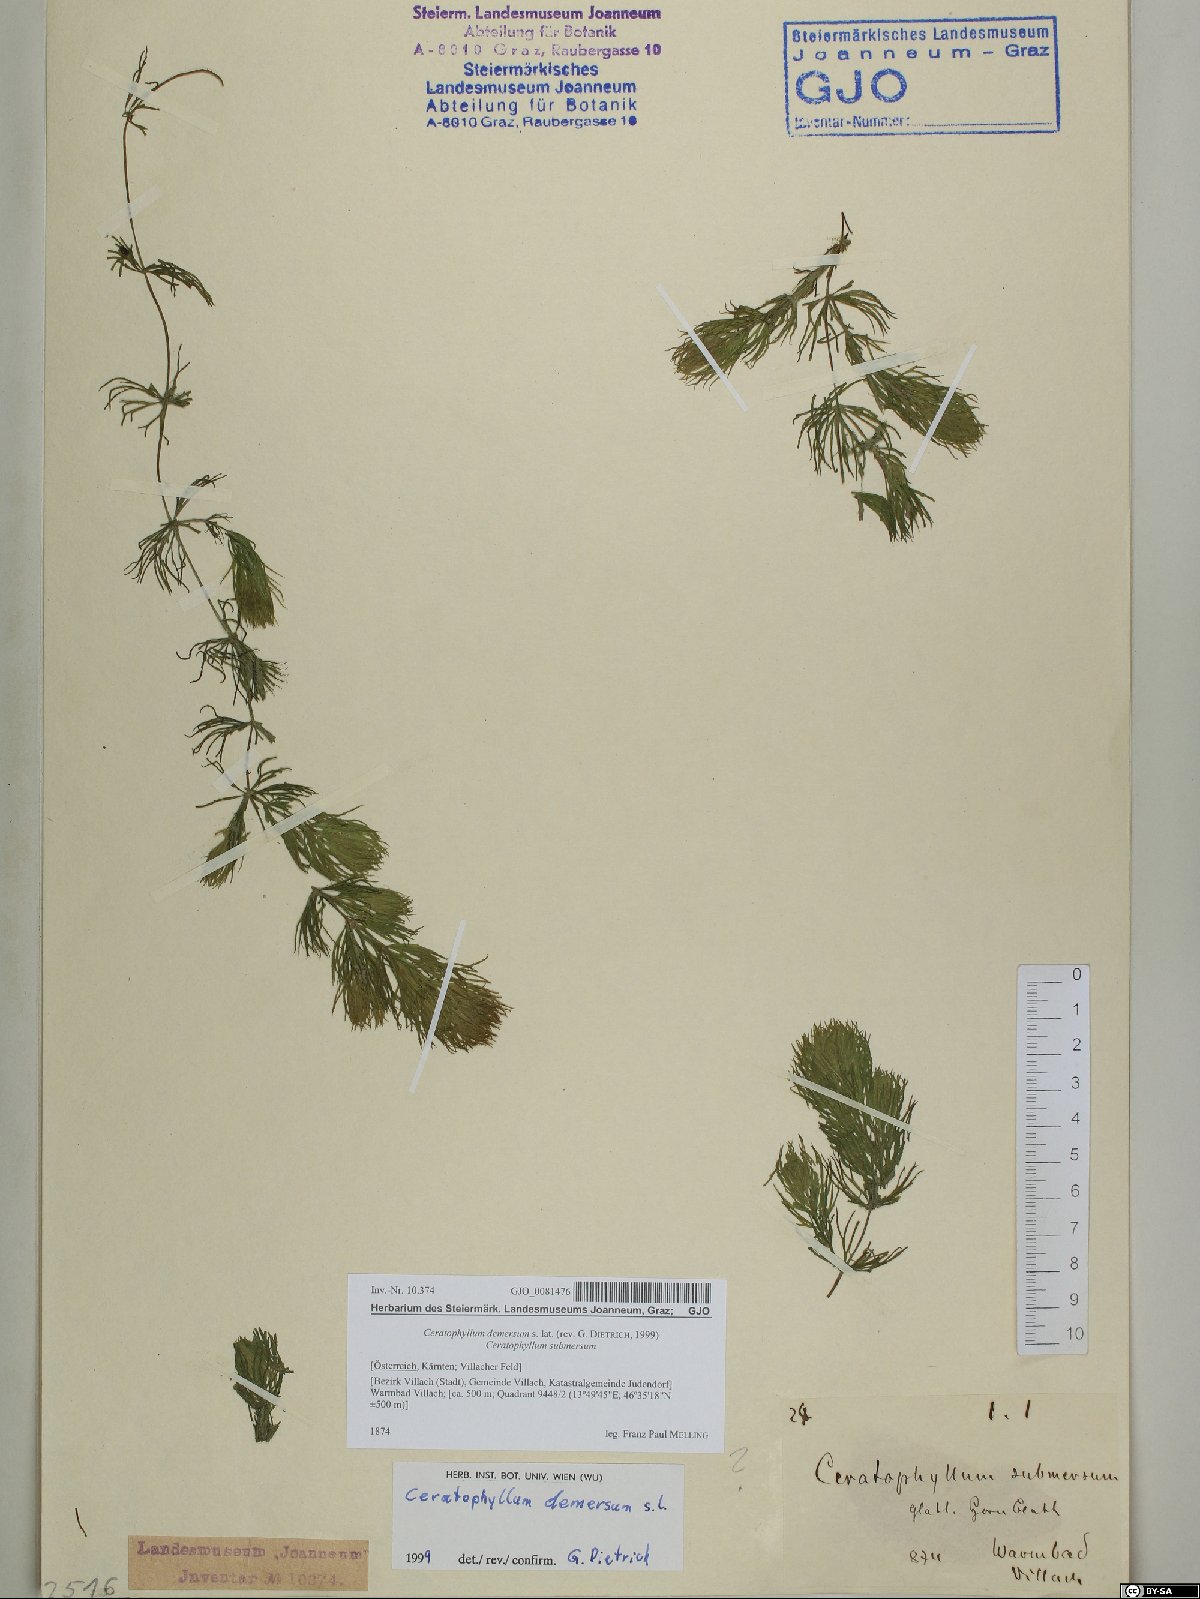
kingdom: Plantae
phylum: Tracheophyta
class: Magnoliopsida
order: Ceratophyllales
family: Ceratophyllaceae
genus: Ceratophyllum
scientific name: Ceratophyllum demersum
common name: Rigid hornwort
